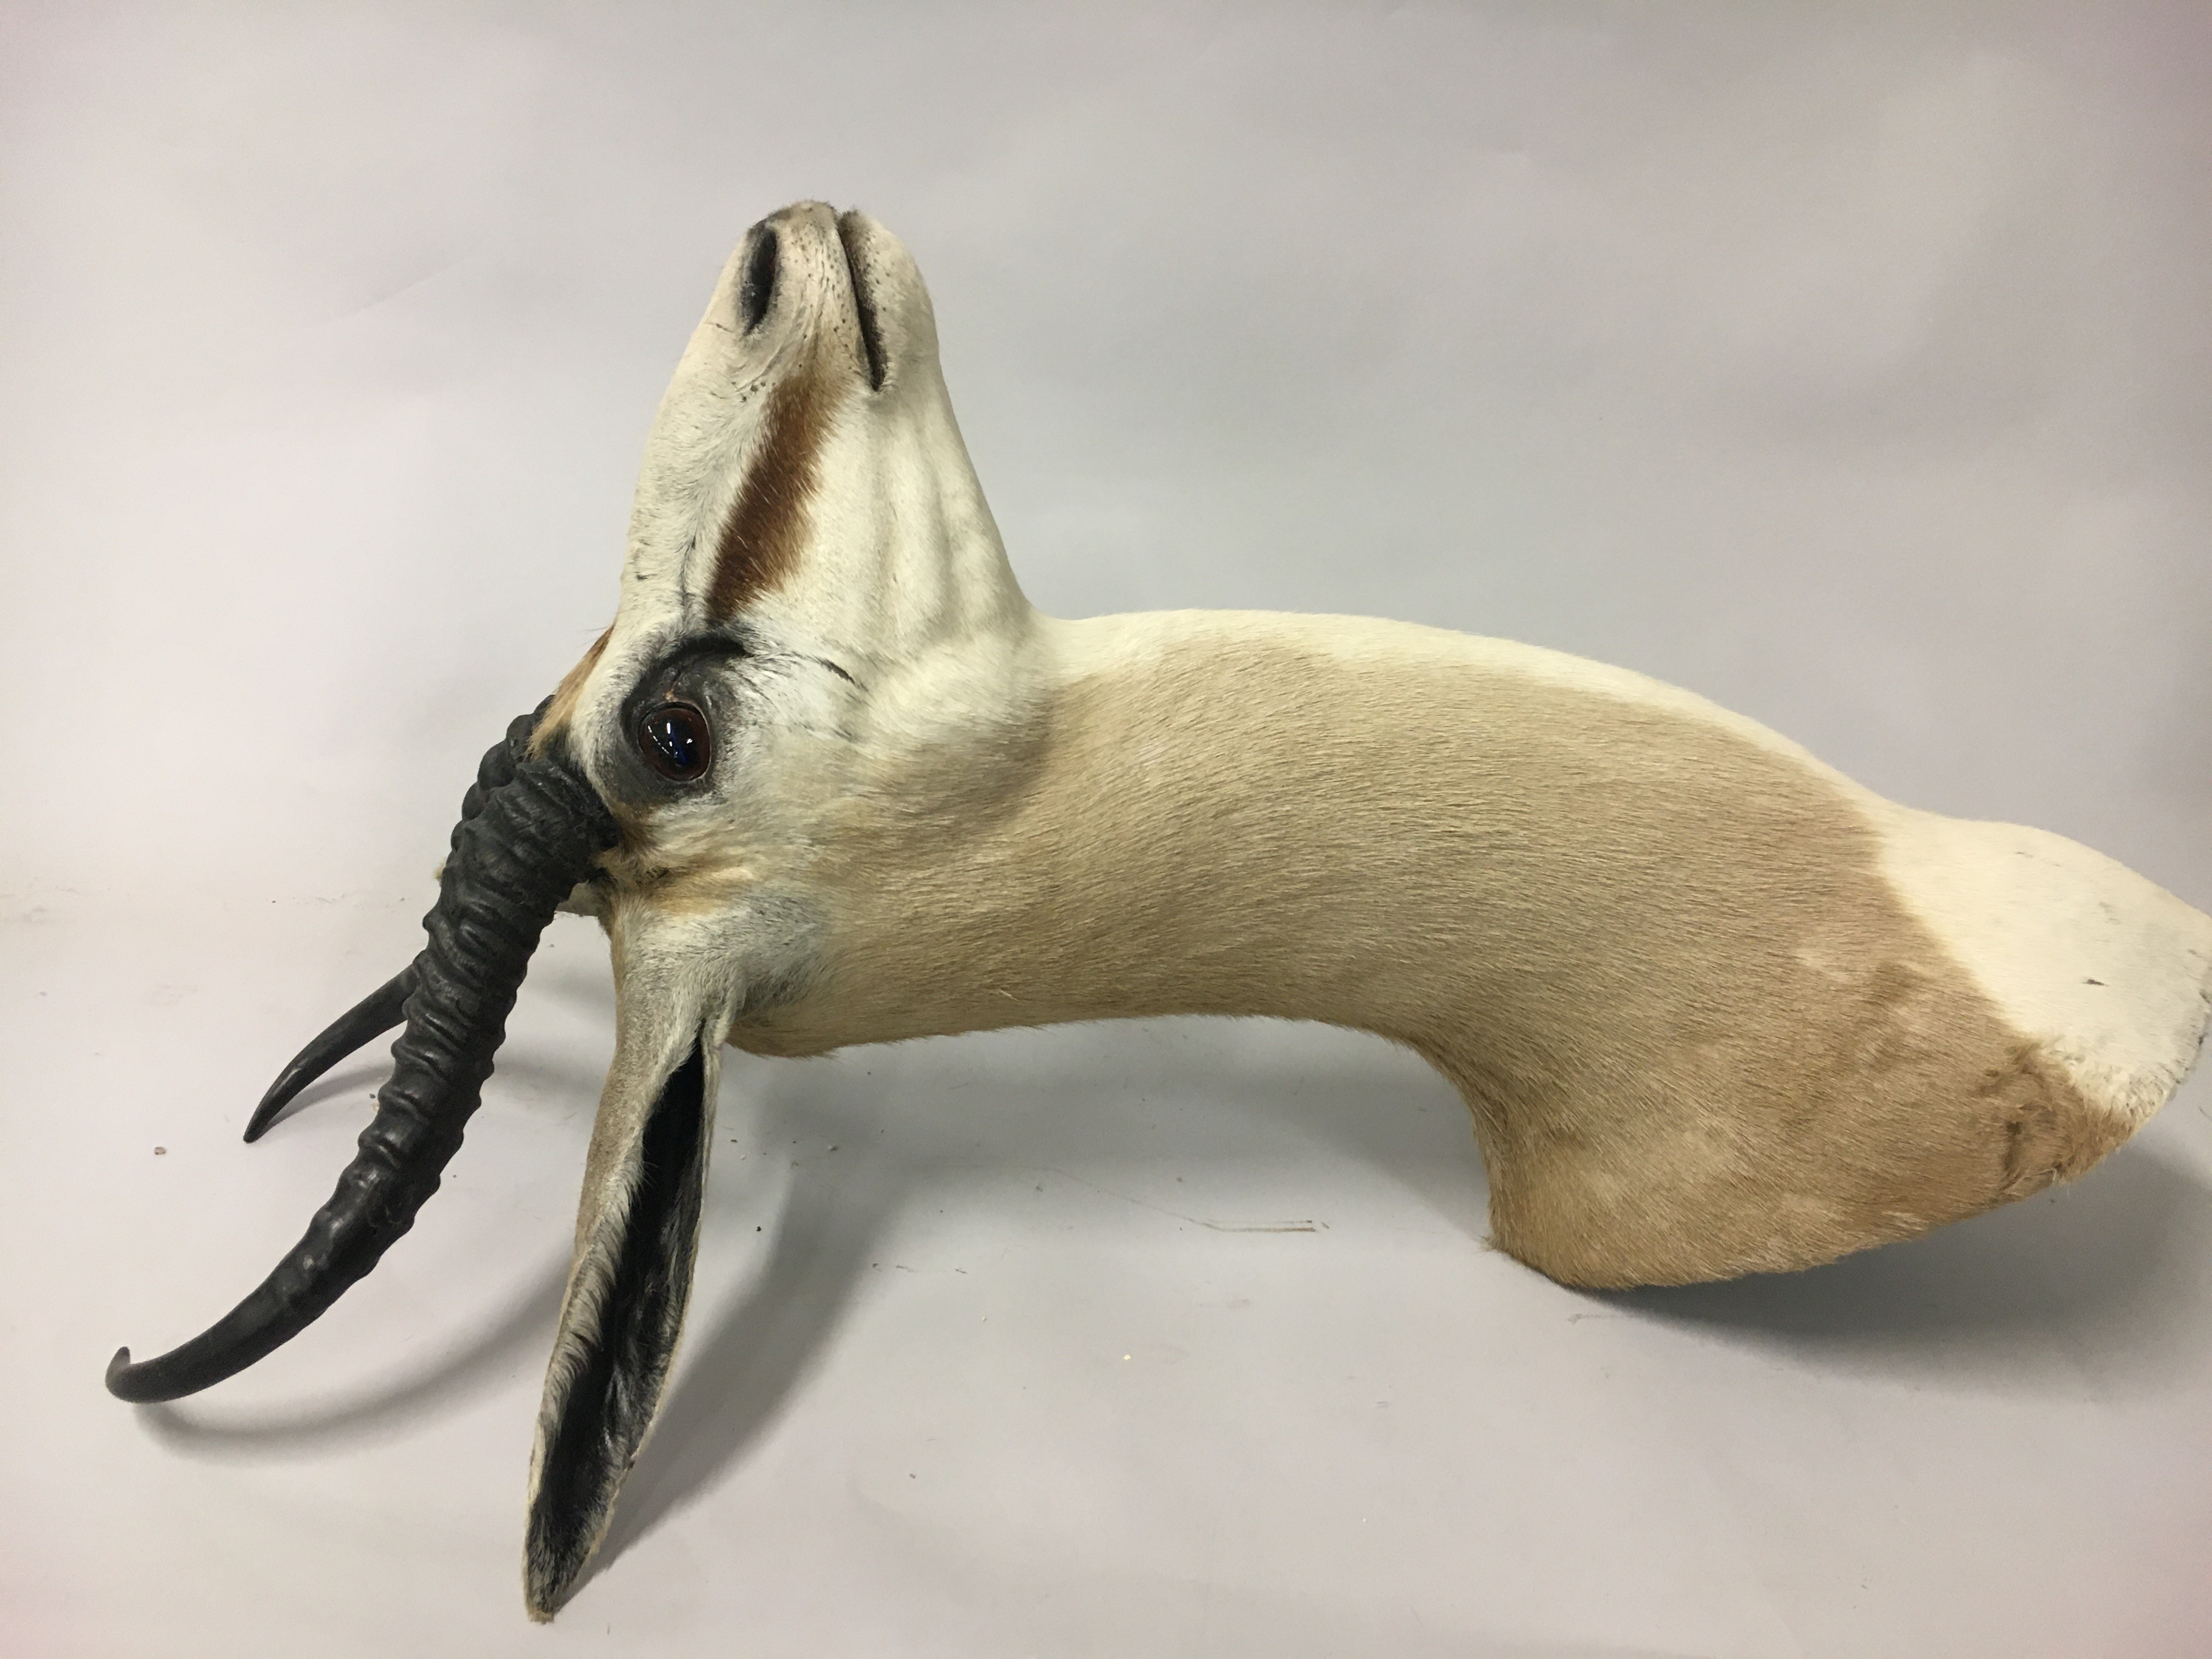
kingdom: Animalia
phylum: Chordata
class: Mammalia
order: Artiodactyla
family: Bovidae
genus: Antidorcas
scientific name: Antidorcas marsupialis
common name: Springbok
